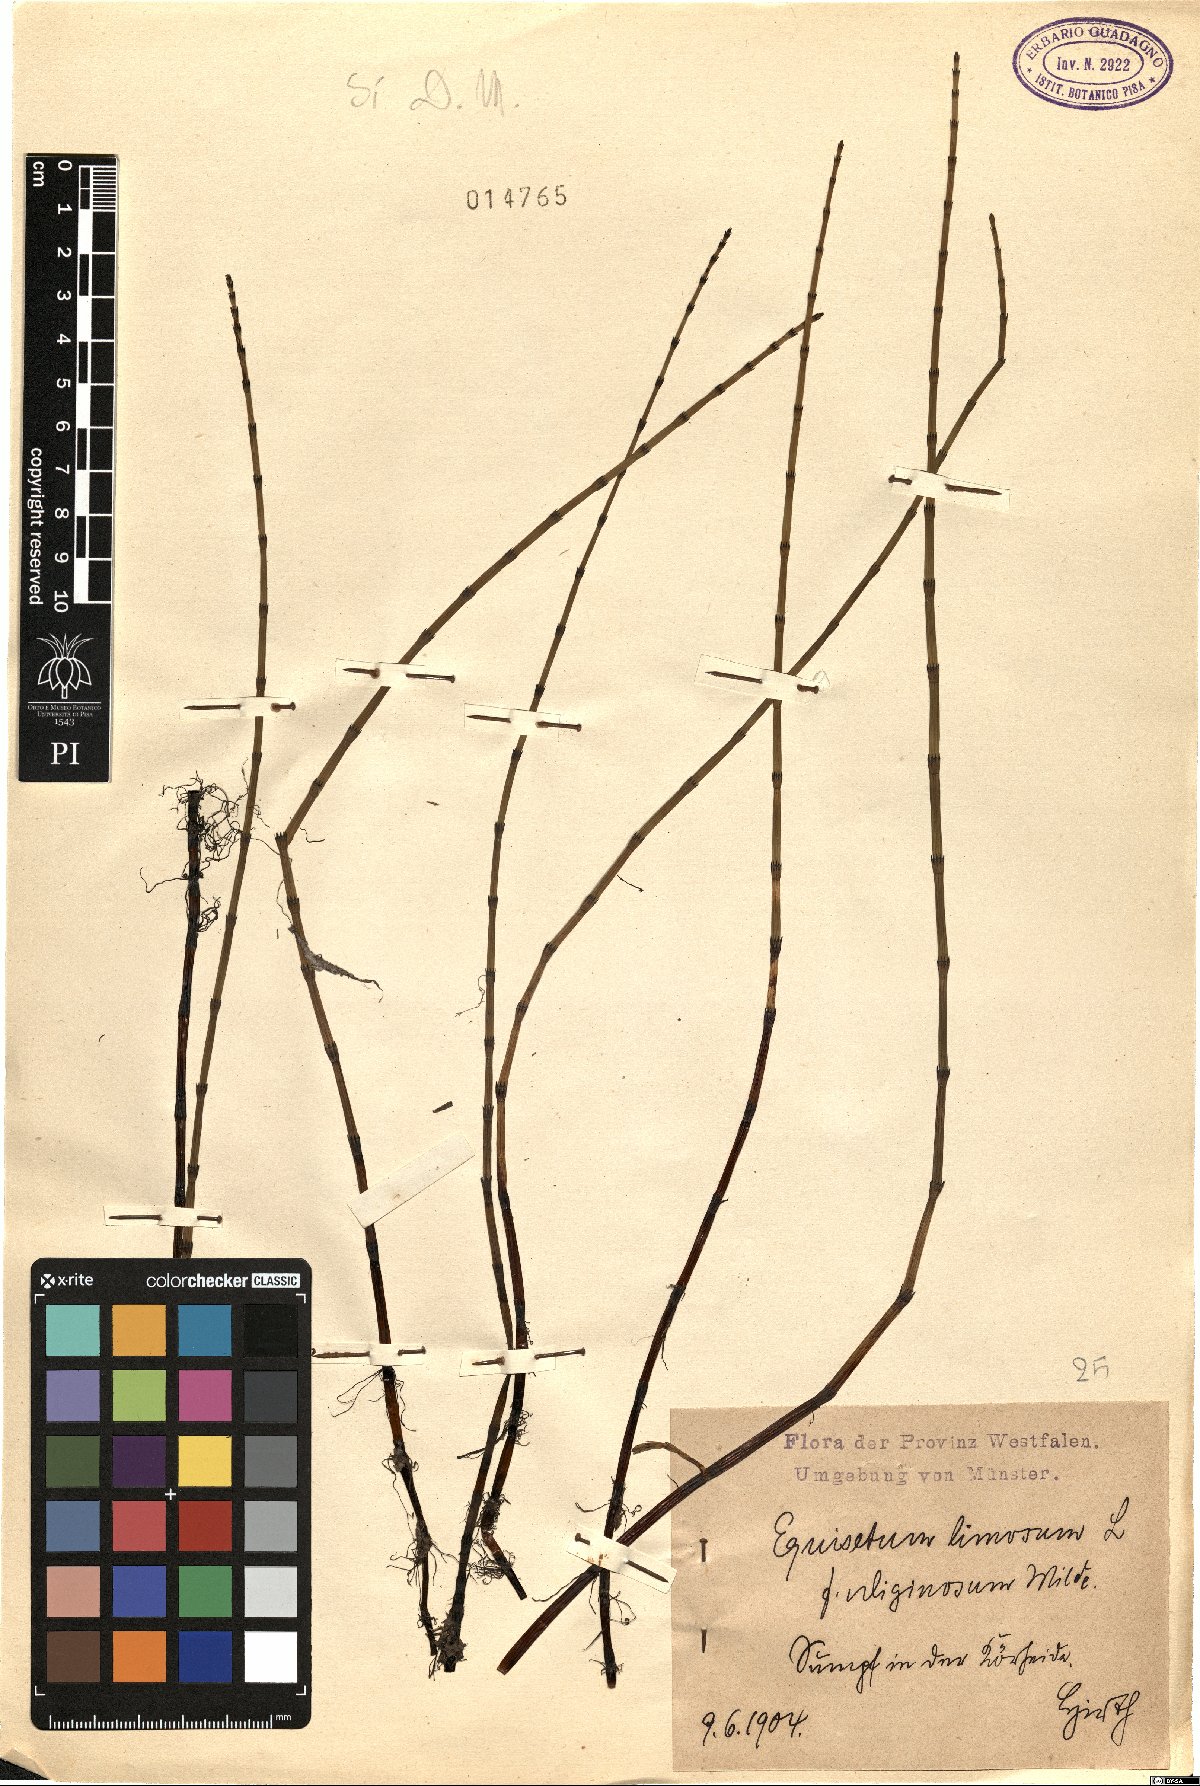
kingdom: Plantae
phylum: Tracheophyta
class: Polypodiopsida
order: Equisetales
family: Equisetaceae
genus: Equisetum
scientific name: Equisetum fluviatile
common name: Water horsetail
